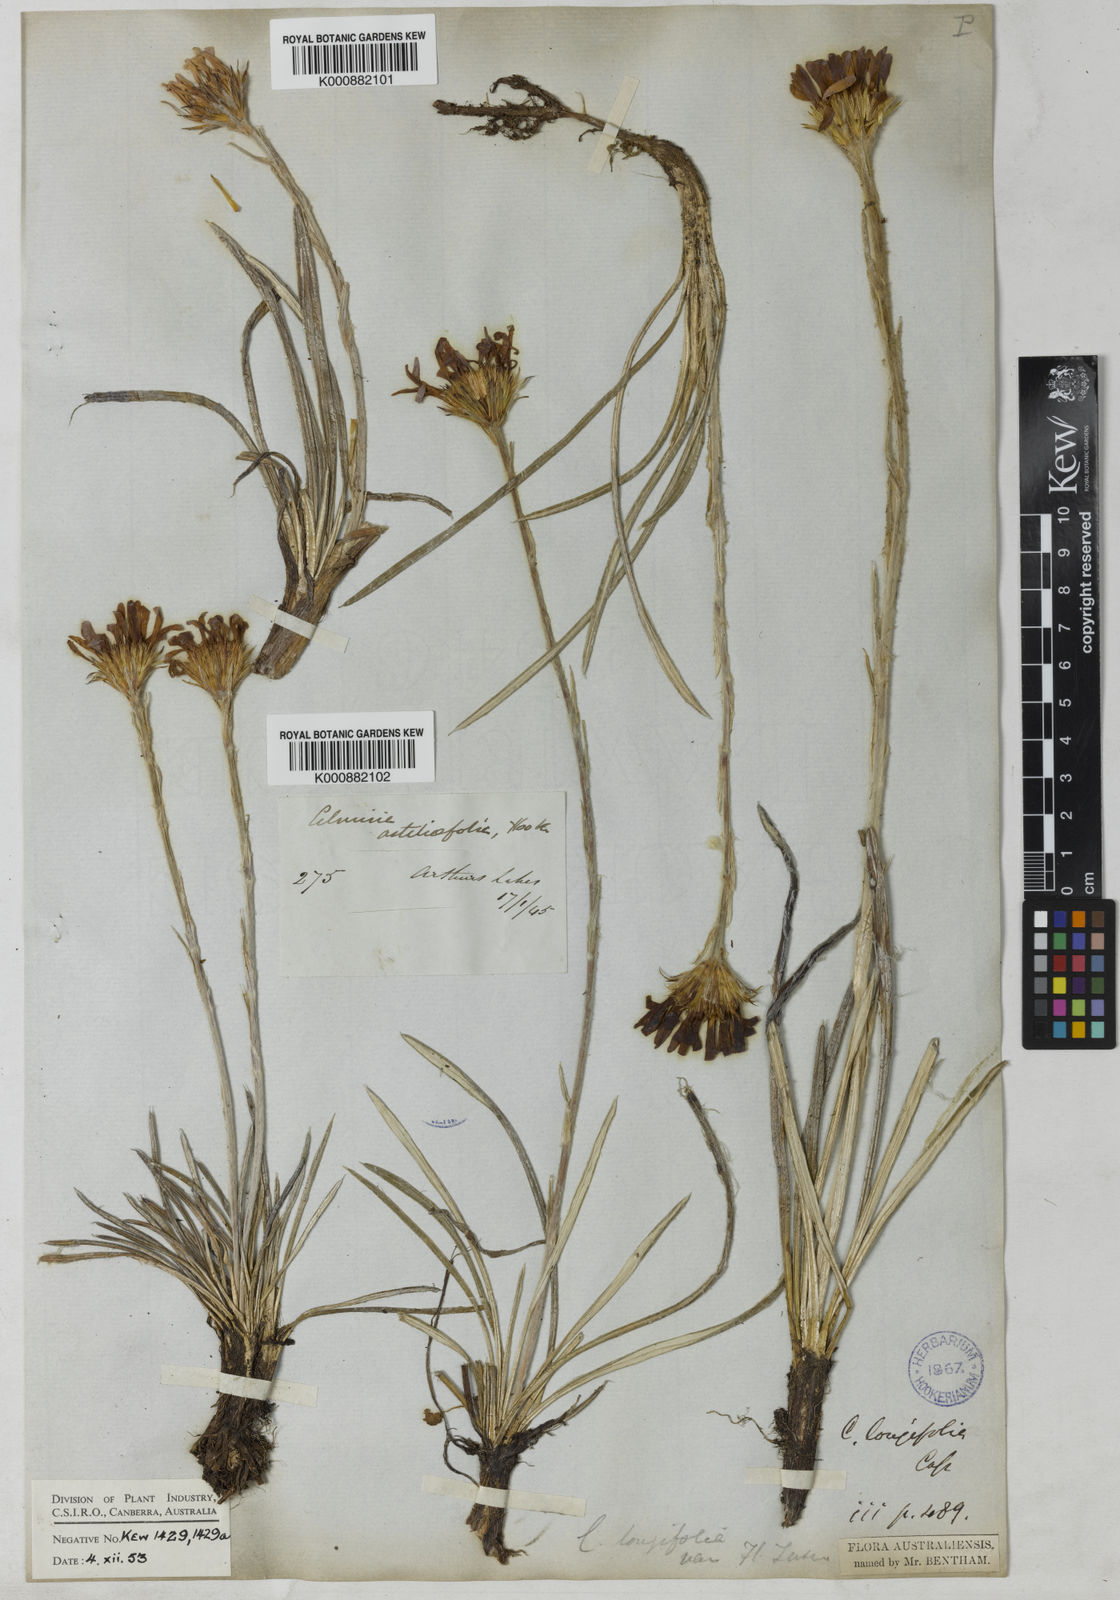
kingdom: Plantae
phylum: Tracheophyta
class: Magnoliopsida
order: Asterales
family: Asteraceae
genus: Celmisia
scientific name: Celmisia longifolia
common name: Silver snow daisy
